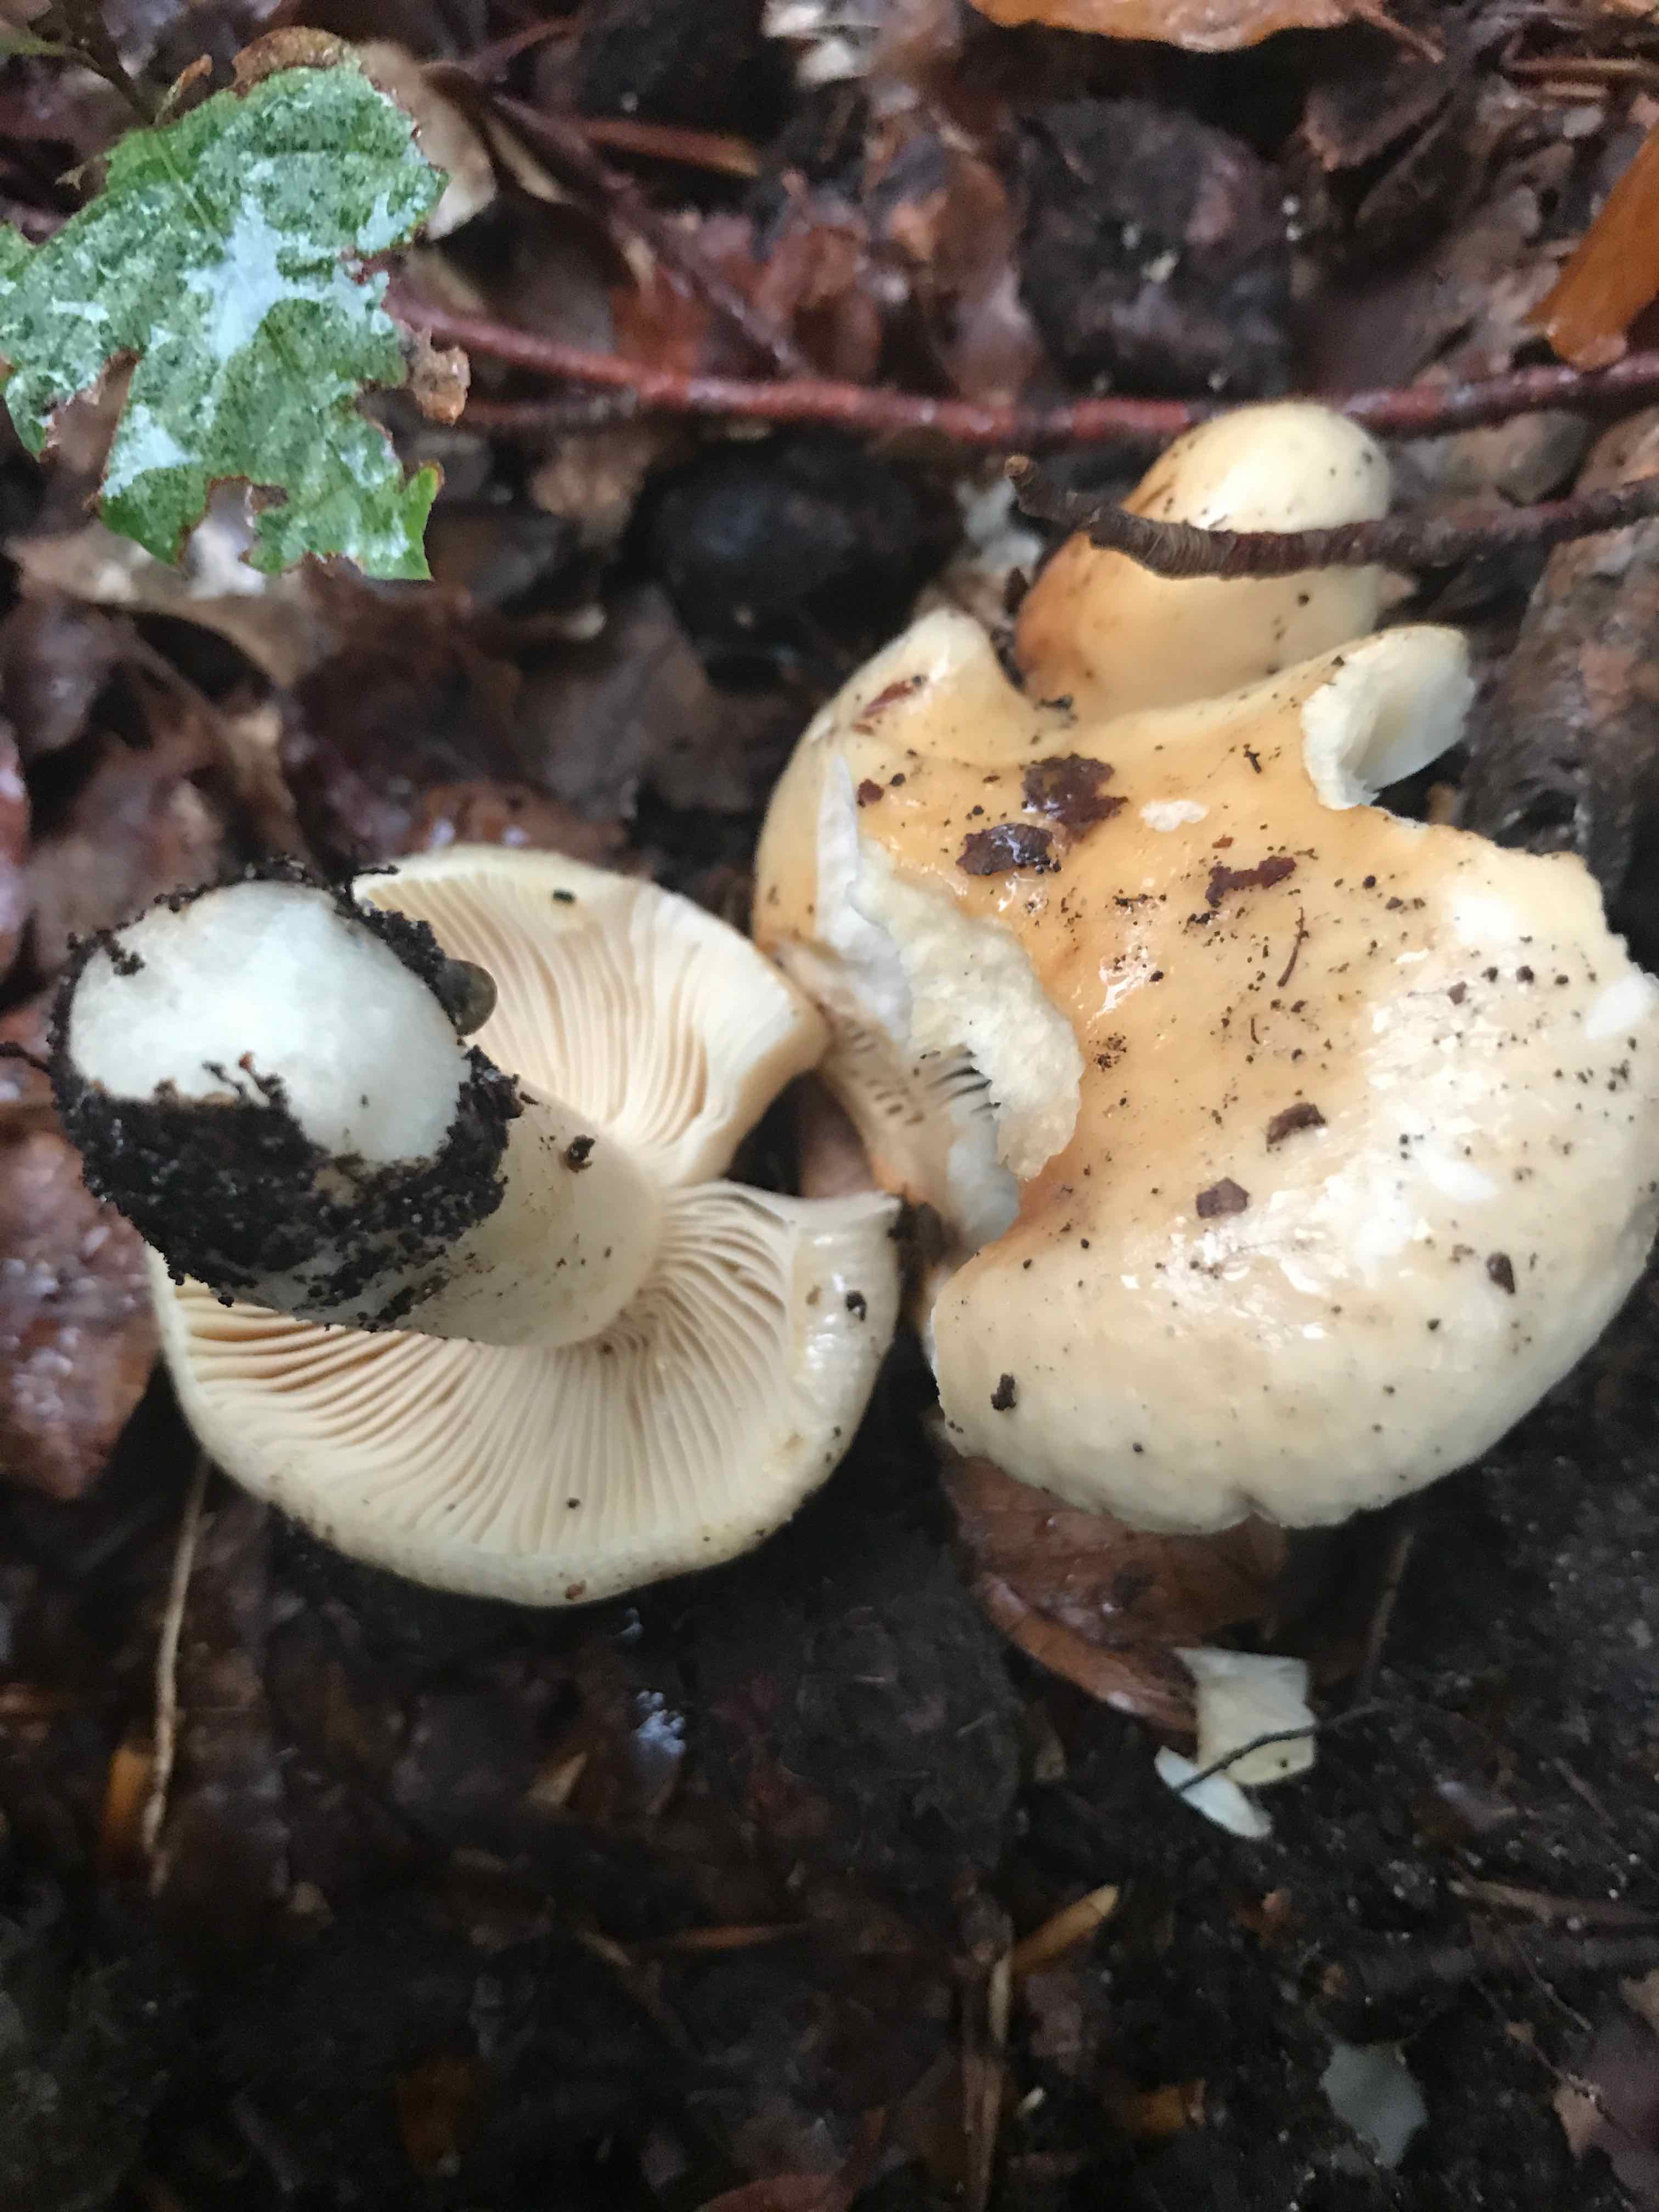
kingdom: Fungi
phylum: Basidiomycota
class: Agaricomycetes
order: Russulales
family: Russulaceae
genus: Russula
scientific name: Russula fellea
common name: galde-skørhat
